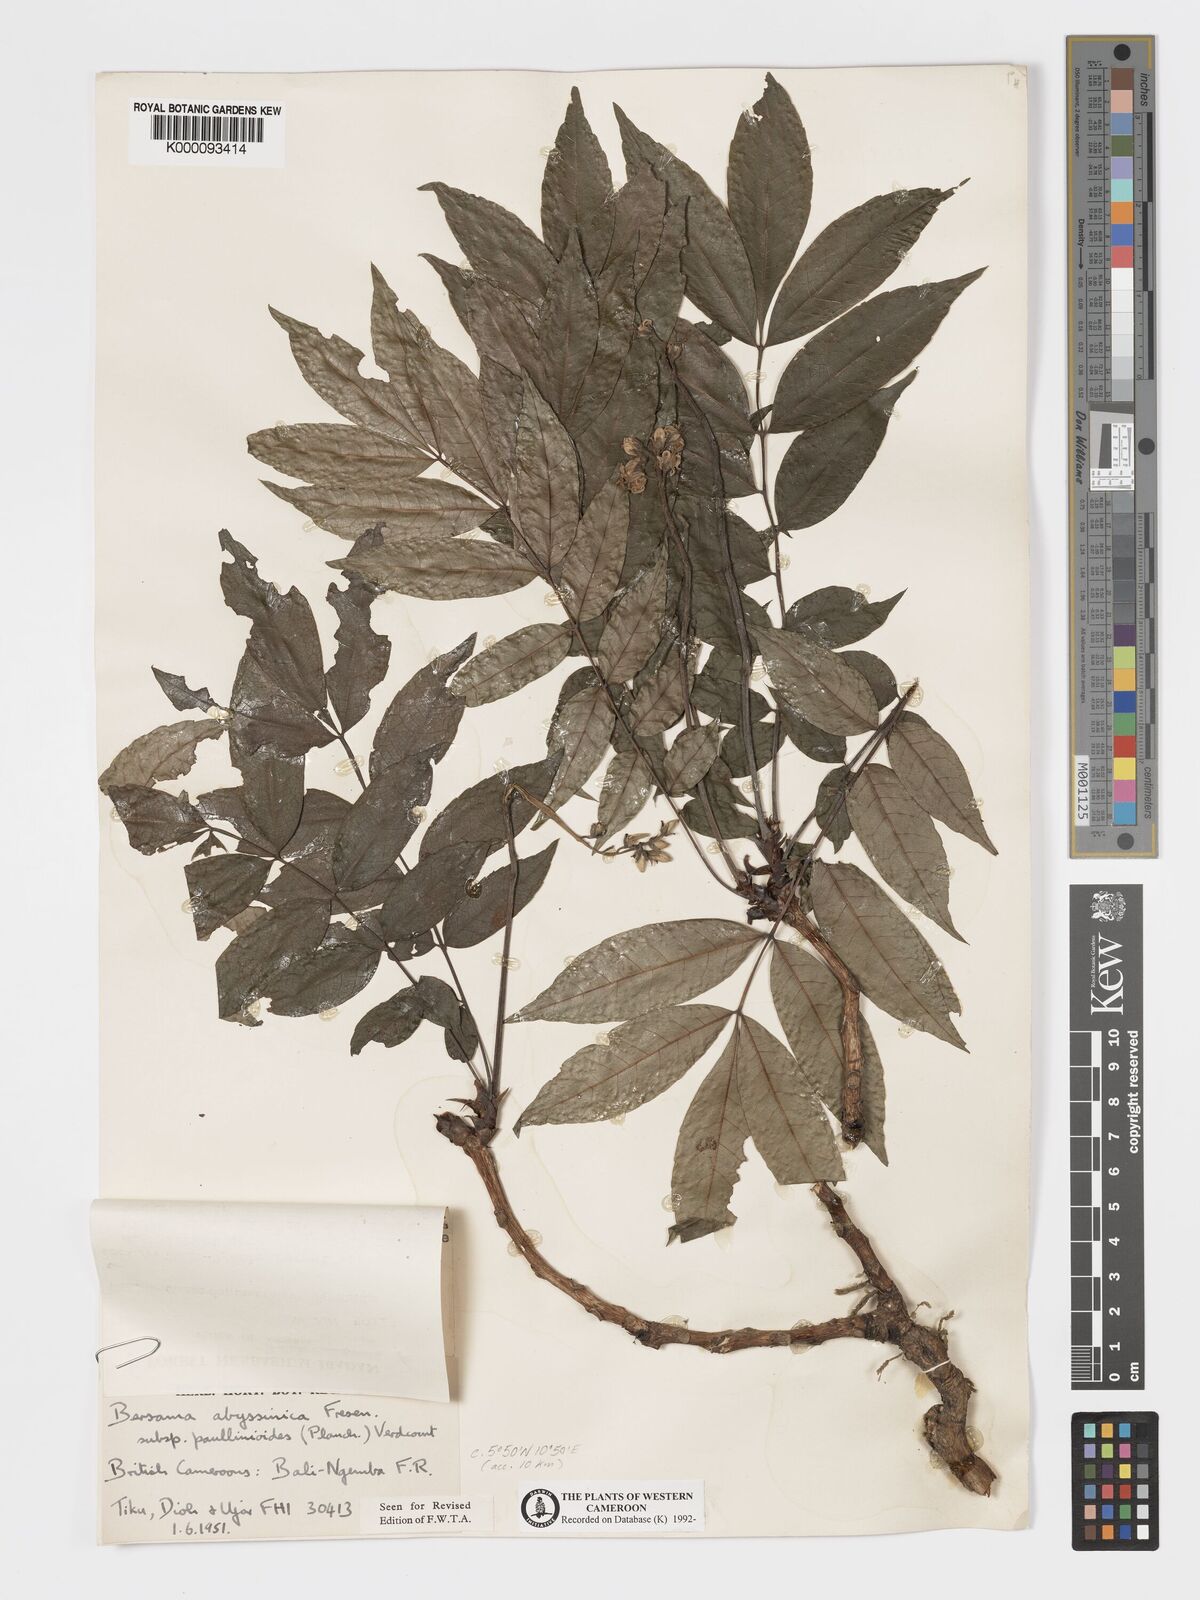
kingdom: Plantae
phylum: Tracheophyta
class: Magnoliopsida
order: Geraniales
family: Melianthaceae
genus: Bersama
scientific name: Bersama abyssinica
